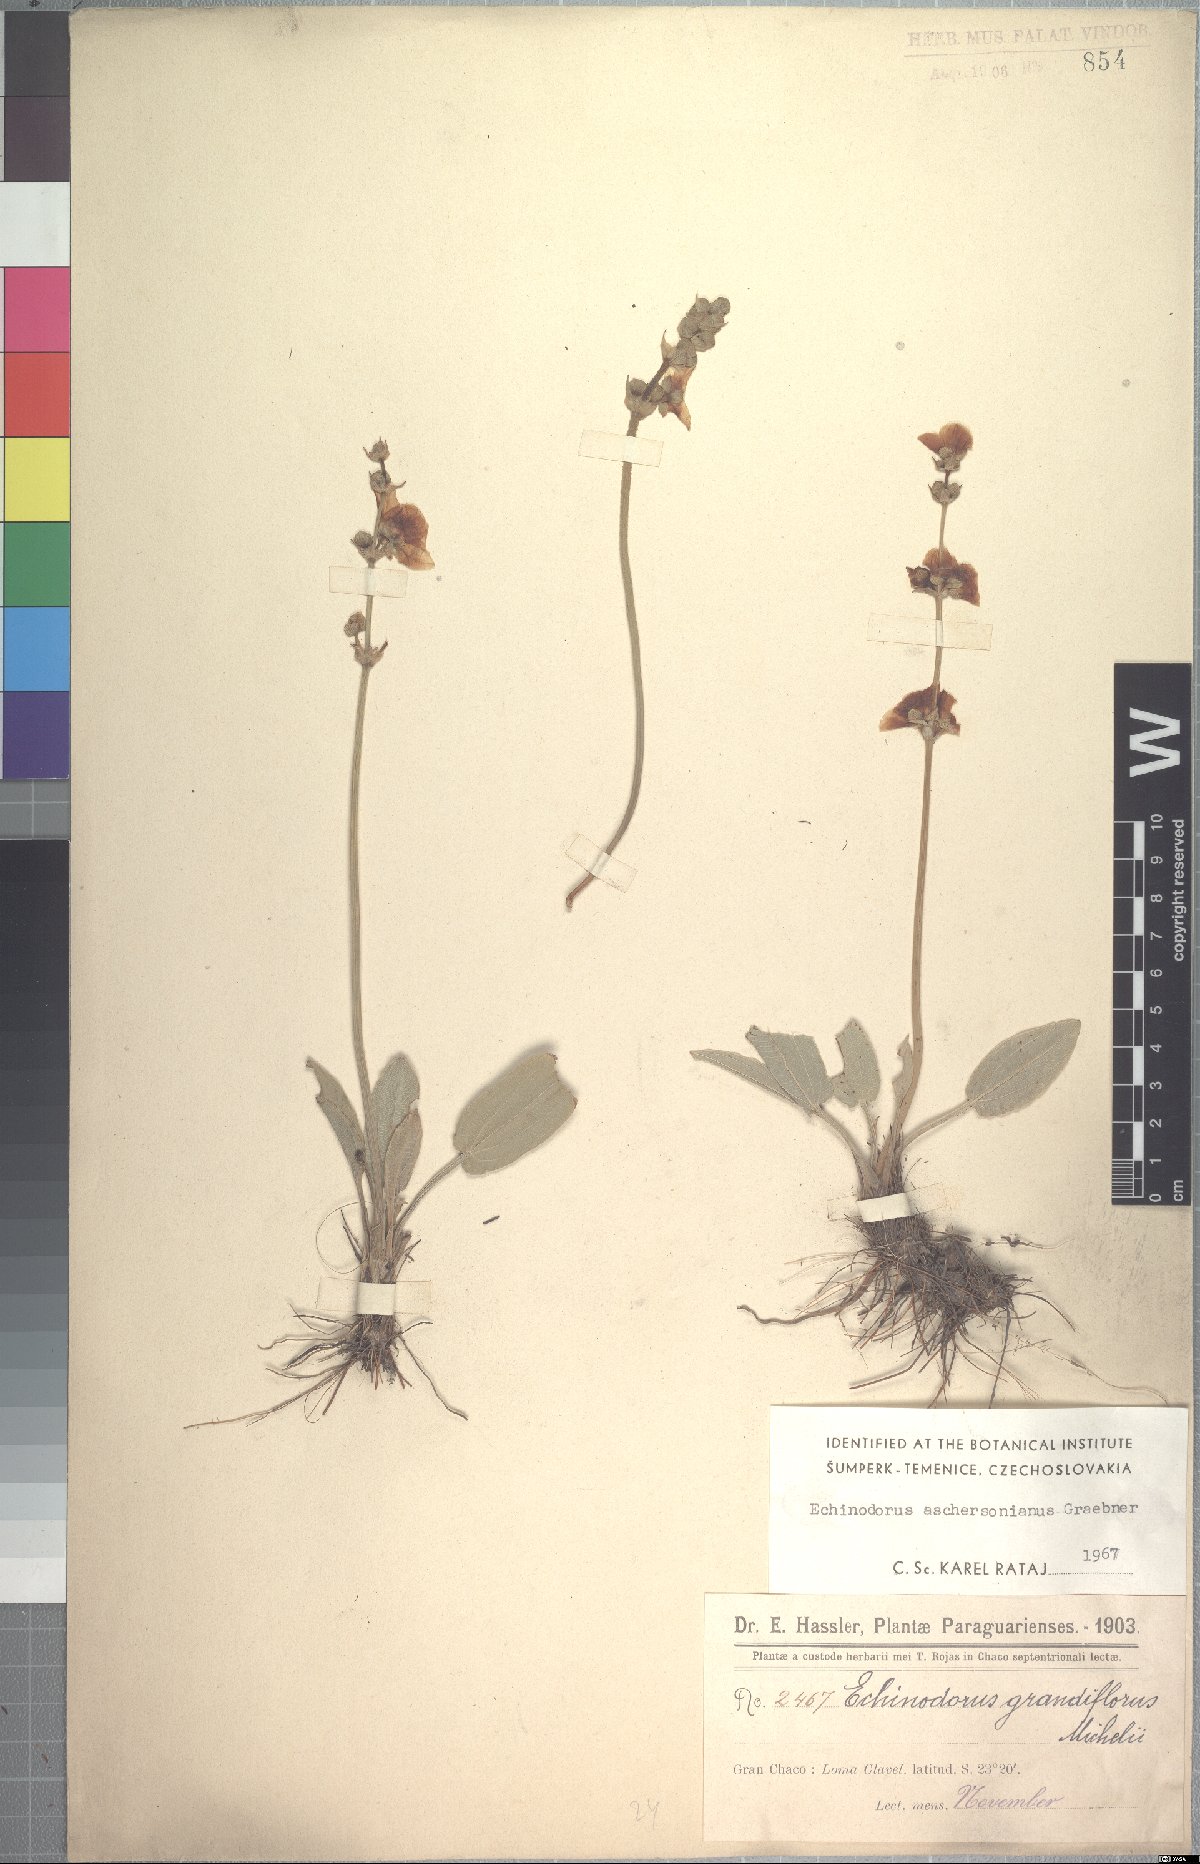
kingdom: Plantae
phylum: Tracheophyta
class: Liliopsida
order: Alismatales
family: Alismataceae
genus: Aquarius
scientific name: Aquarius uruguayensis
